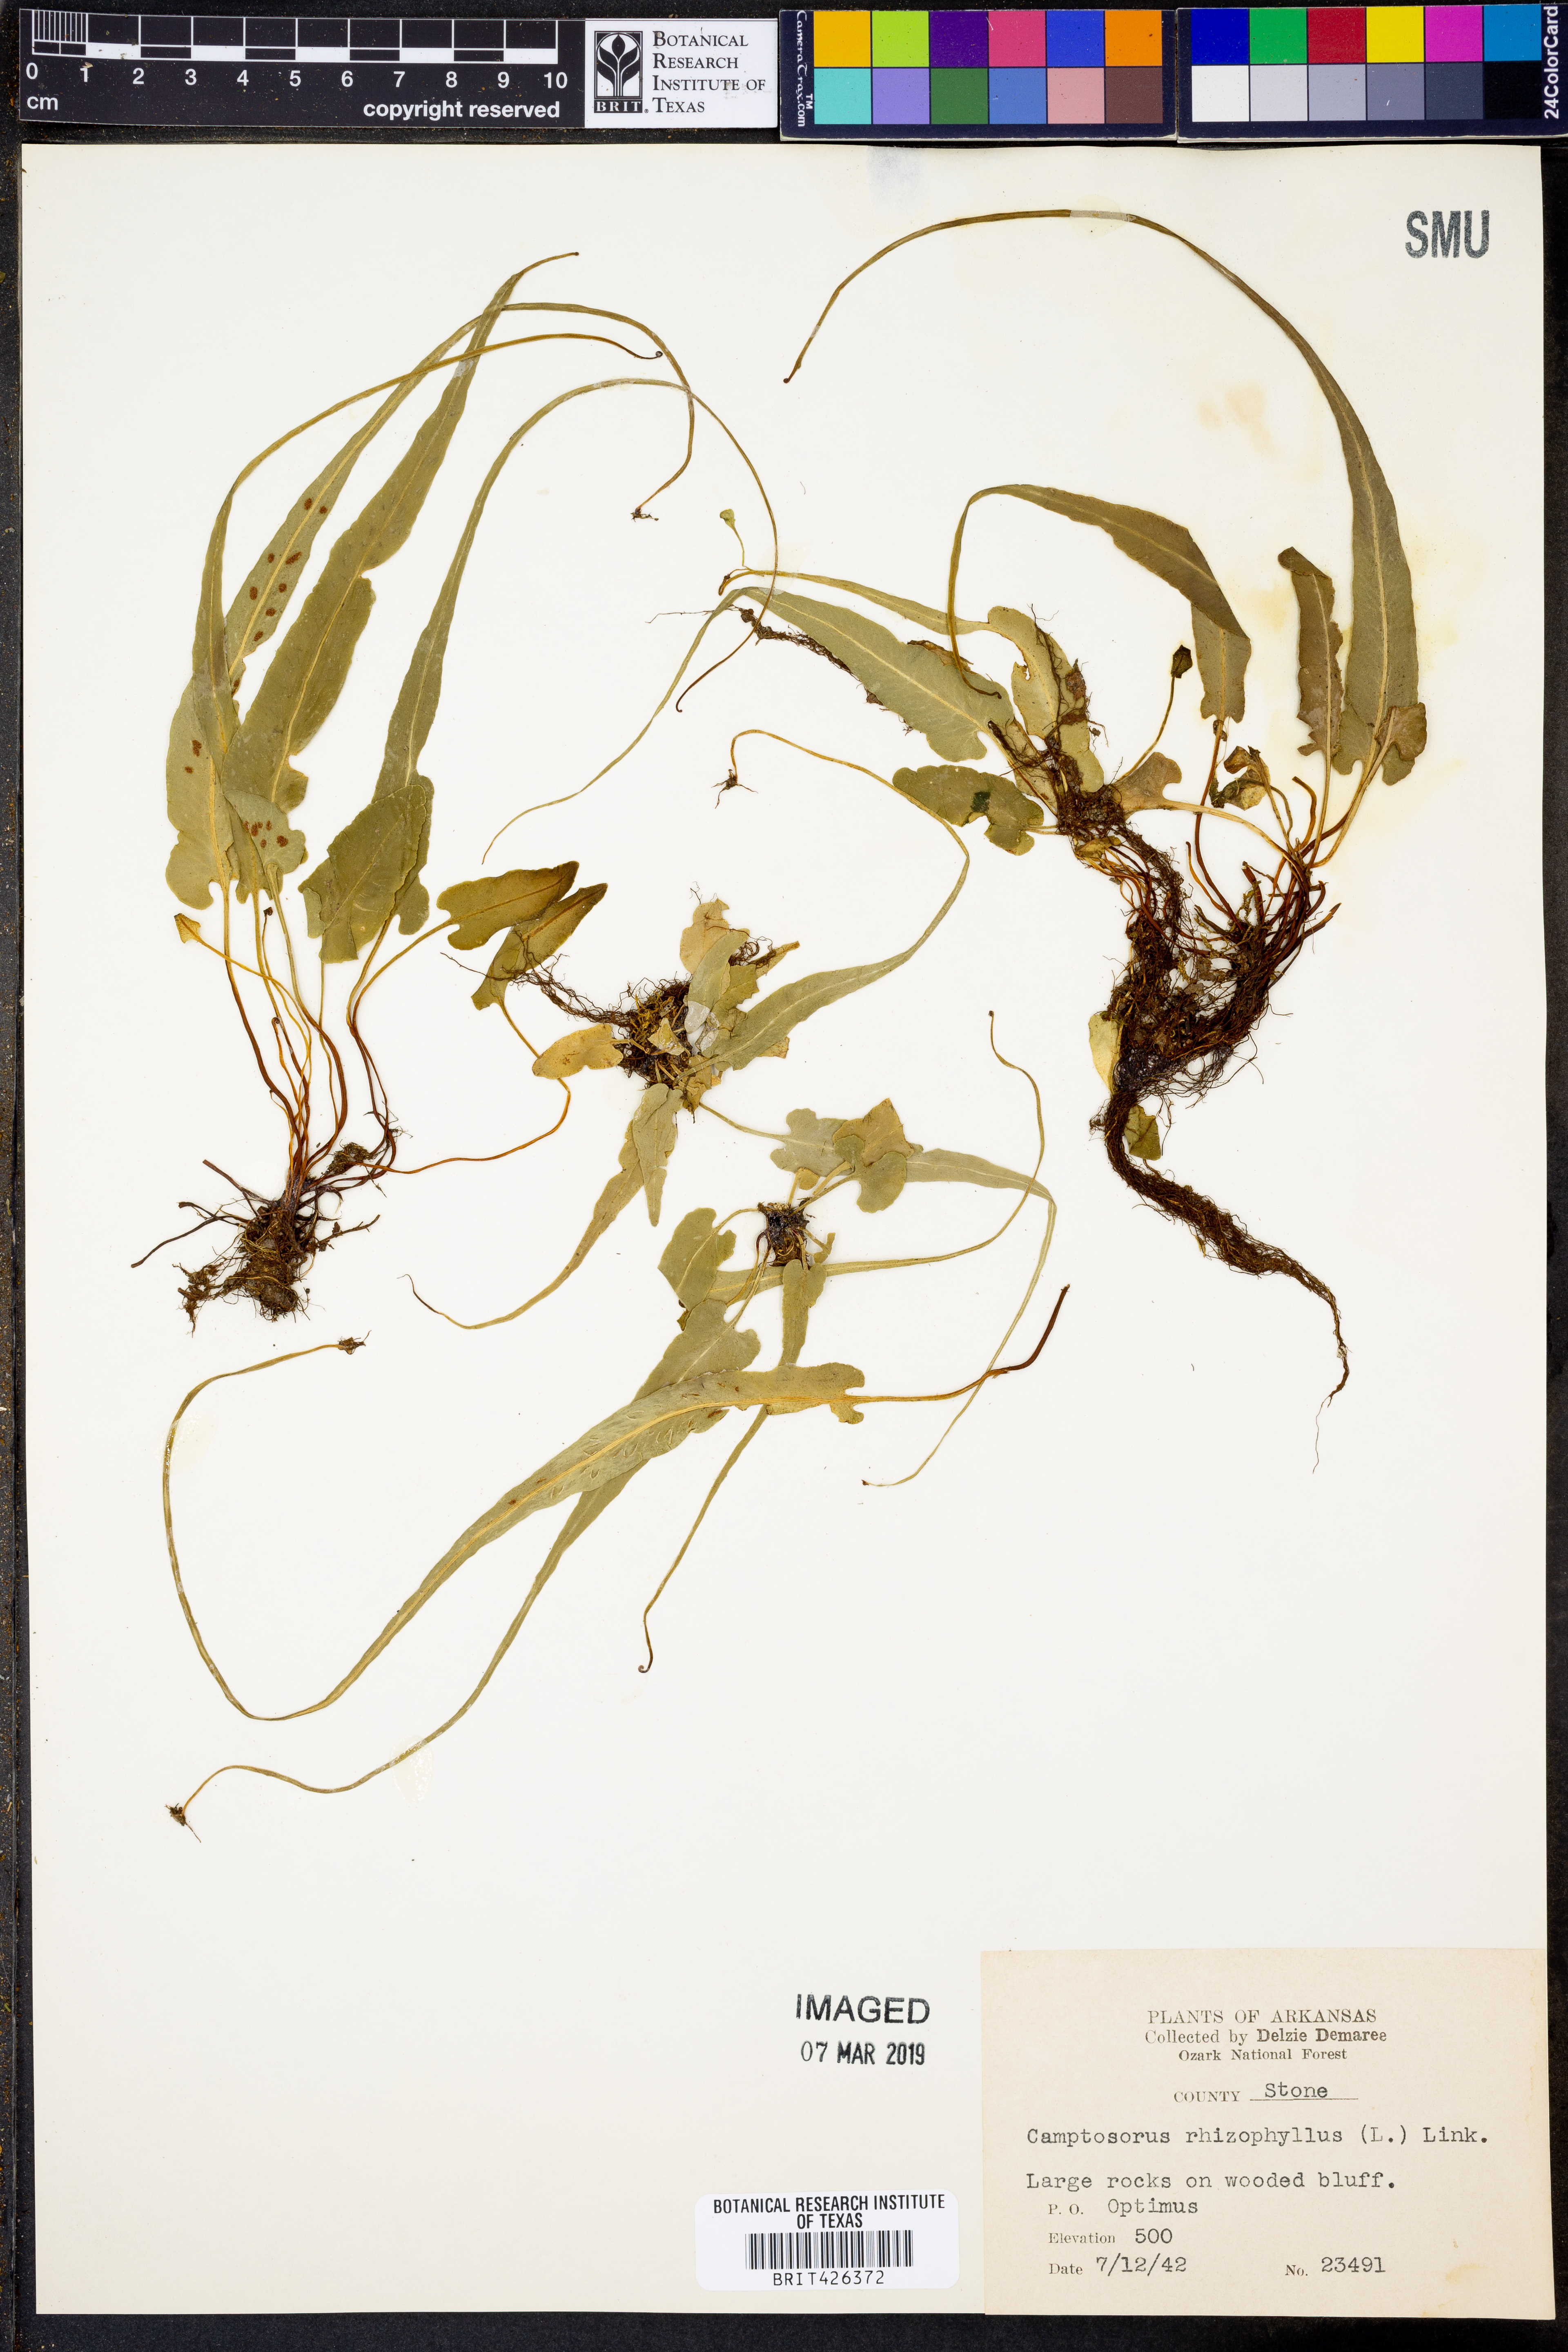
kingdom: Plantae
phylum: Tracheophyta
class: Polypodiopsida
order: Polypodiales
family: Aspleniaceae
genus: Asplenium
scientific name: Asplenium rhizophyllum
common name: Walking fern
